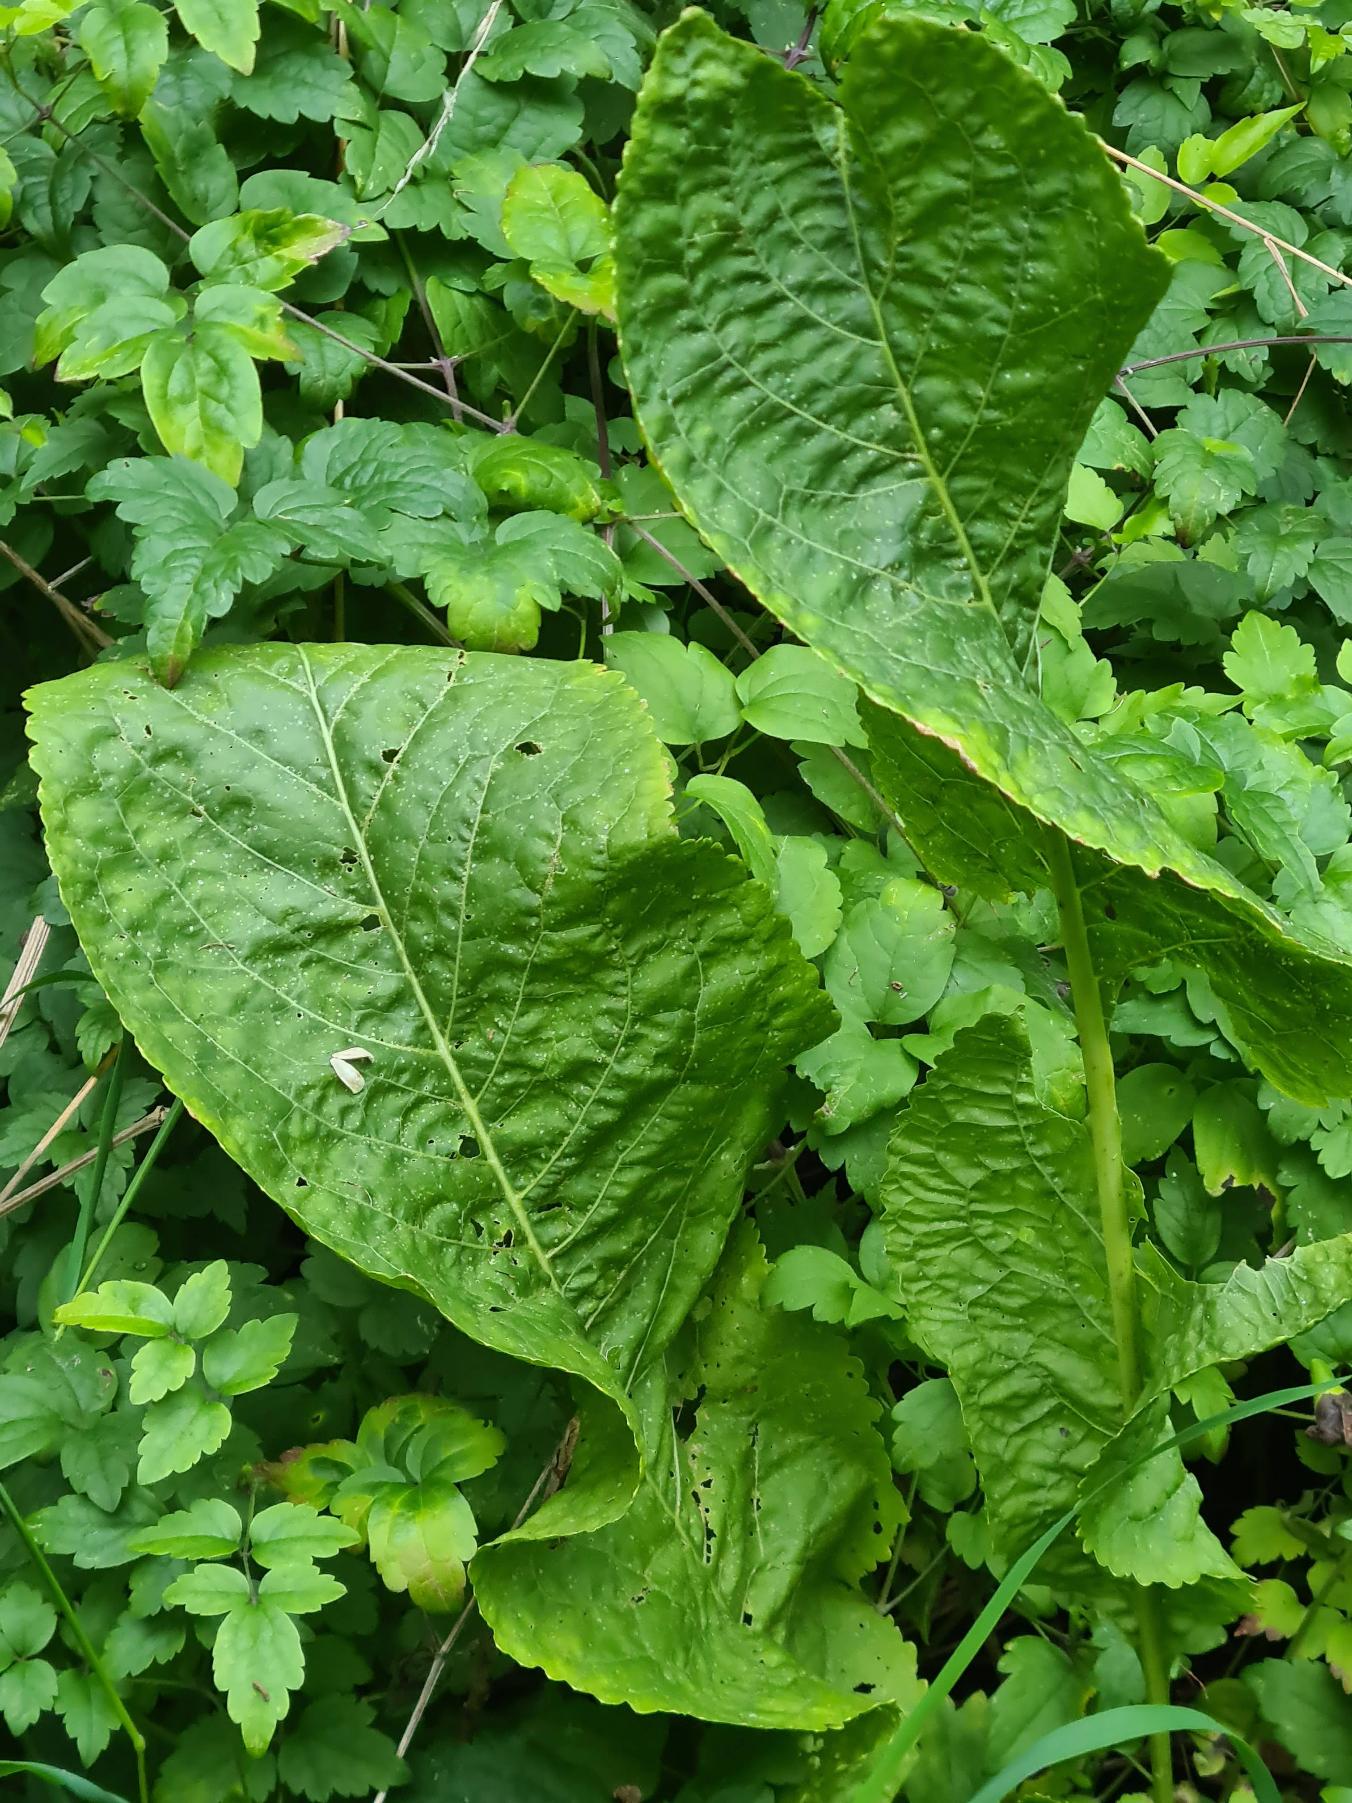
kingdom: Plantae
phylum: Tracheophyta
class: Magnoliopsida
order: Brassicales
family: Brassicaceae
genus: Armoracia
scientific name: Armoracia rusticana
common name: Peberrod
